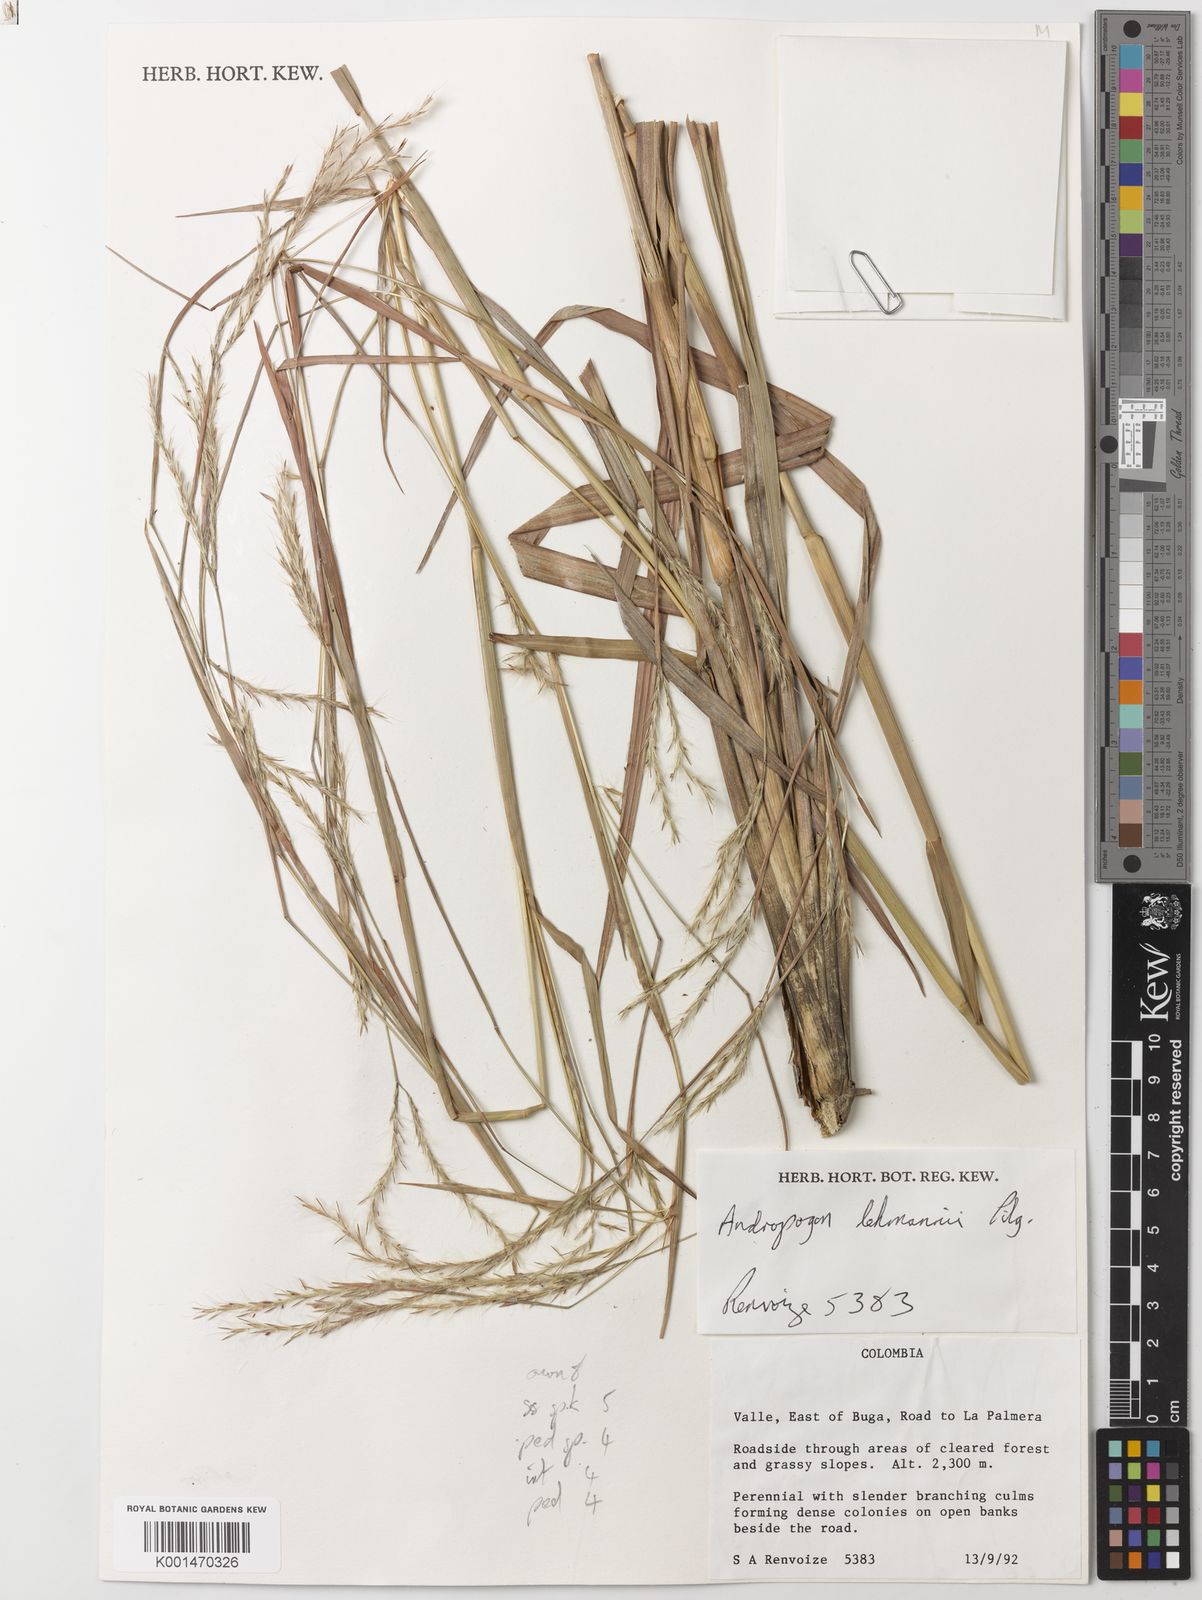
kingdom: Plantae
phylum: Tracheophyta
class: Liliopsida
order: Poales
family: Poaceae
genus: Andropogon
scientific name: Andropogon lehmannii
